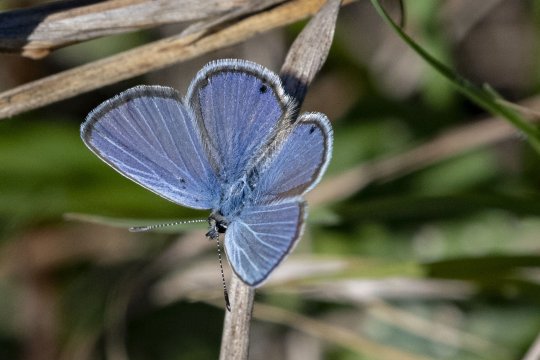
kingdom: Animalia
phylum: Arthropoda
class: Insecta
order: Lepidoptera
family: Lycaenidae
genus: Hemiargus
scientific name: Hemiargus ceraunus
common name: Ceraunus Blue
